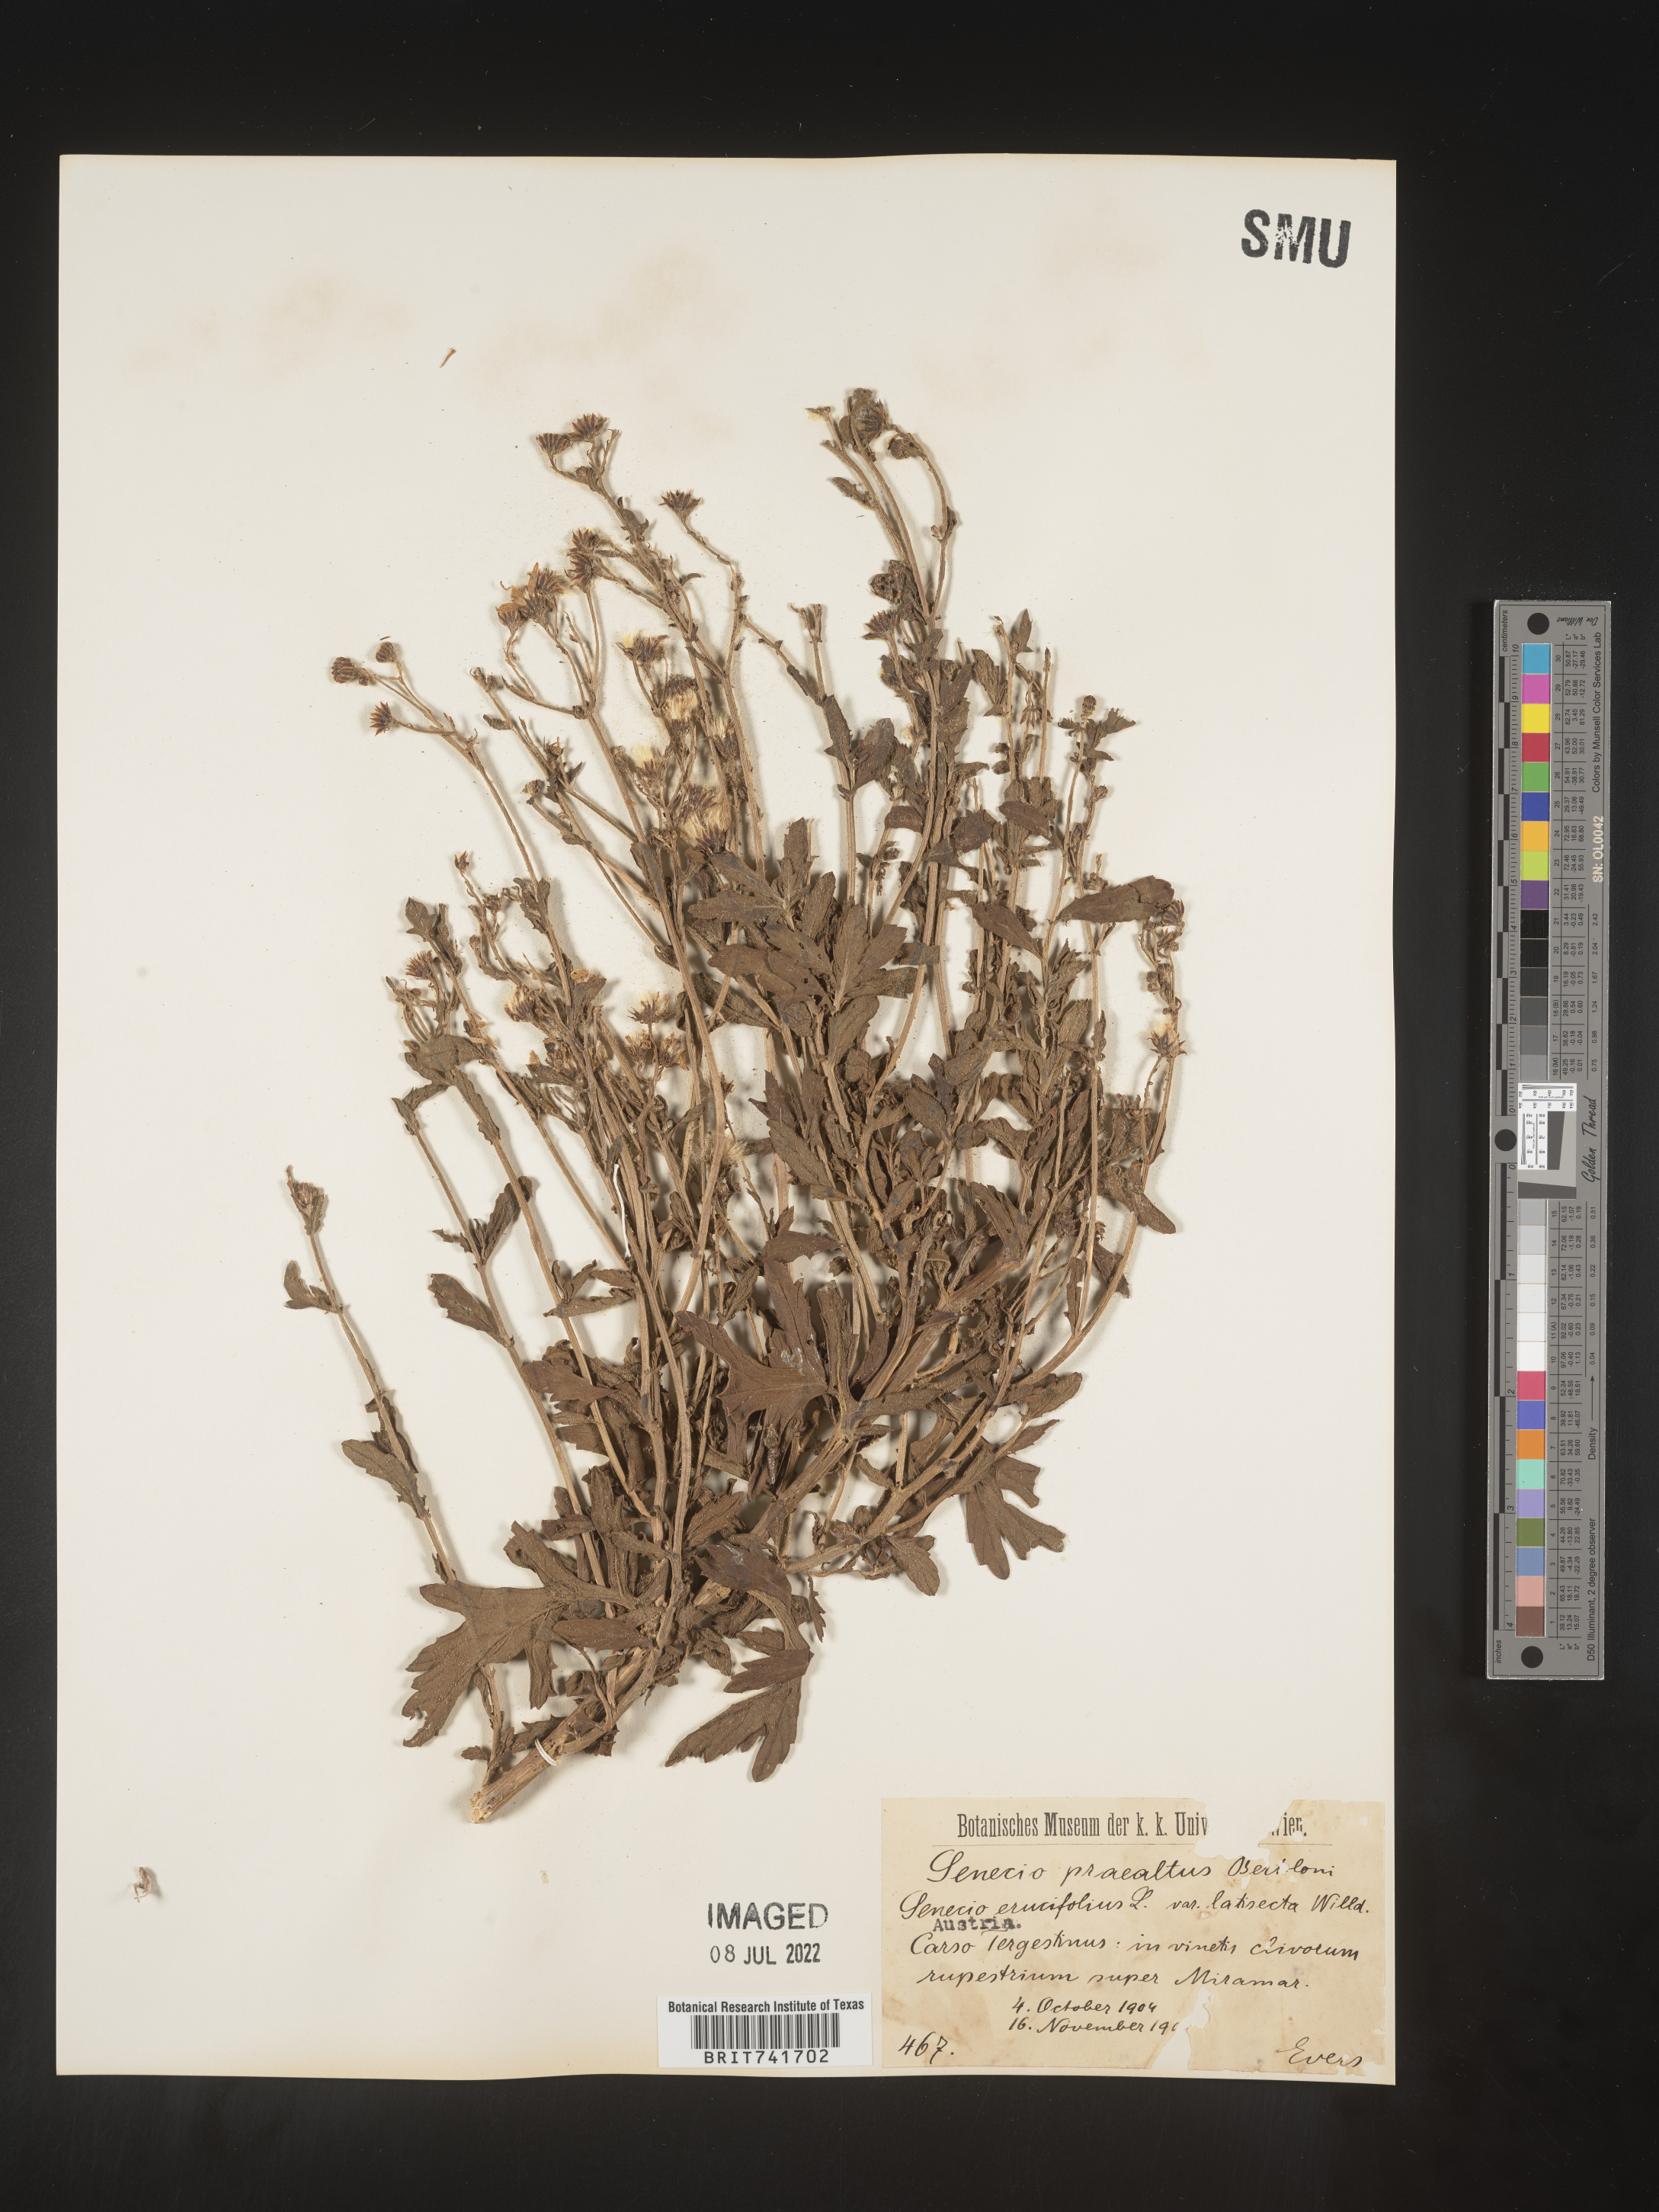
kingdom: Plantae
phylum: Tracheophyta
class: Magnoliopsida
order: Asterales
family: Asteraceae
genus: Senecio
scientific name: Senecio
